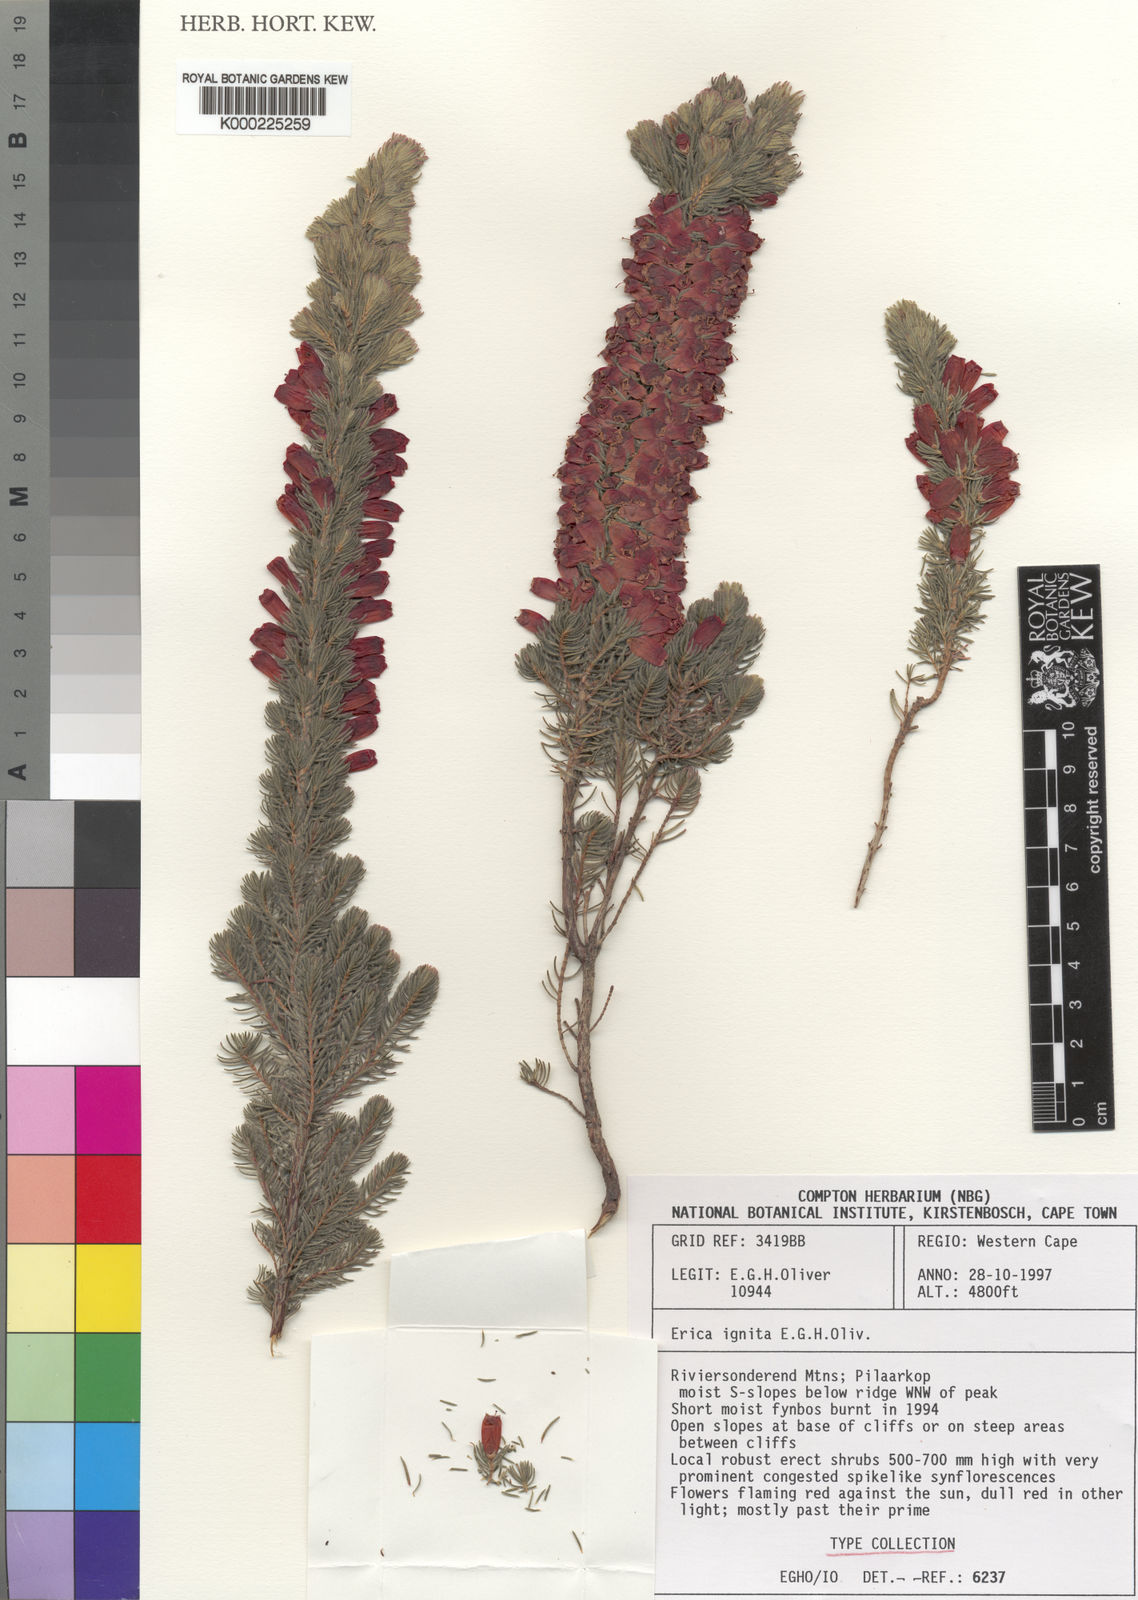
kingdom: Plantae
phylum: Tracheophyta
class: Magnoliopsida
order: Ericales
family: Ericaceae
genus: Erica
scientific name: Erica ignita
